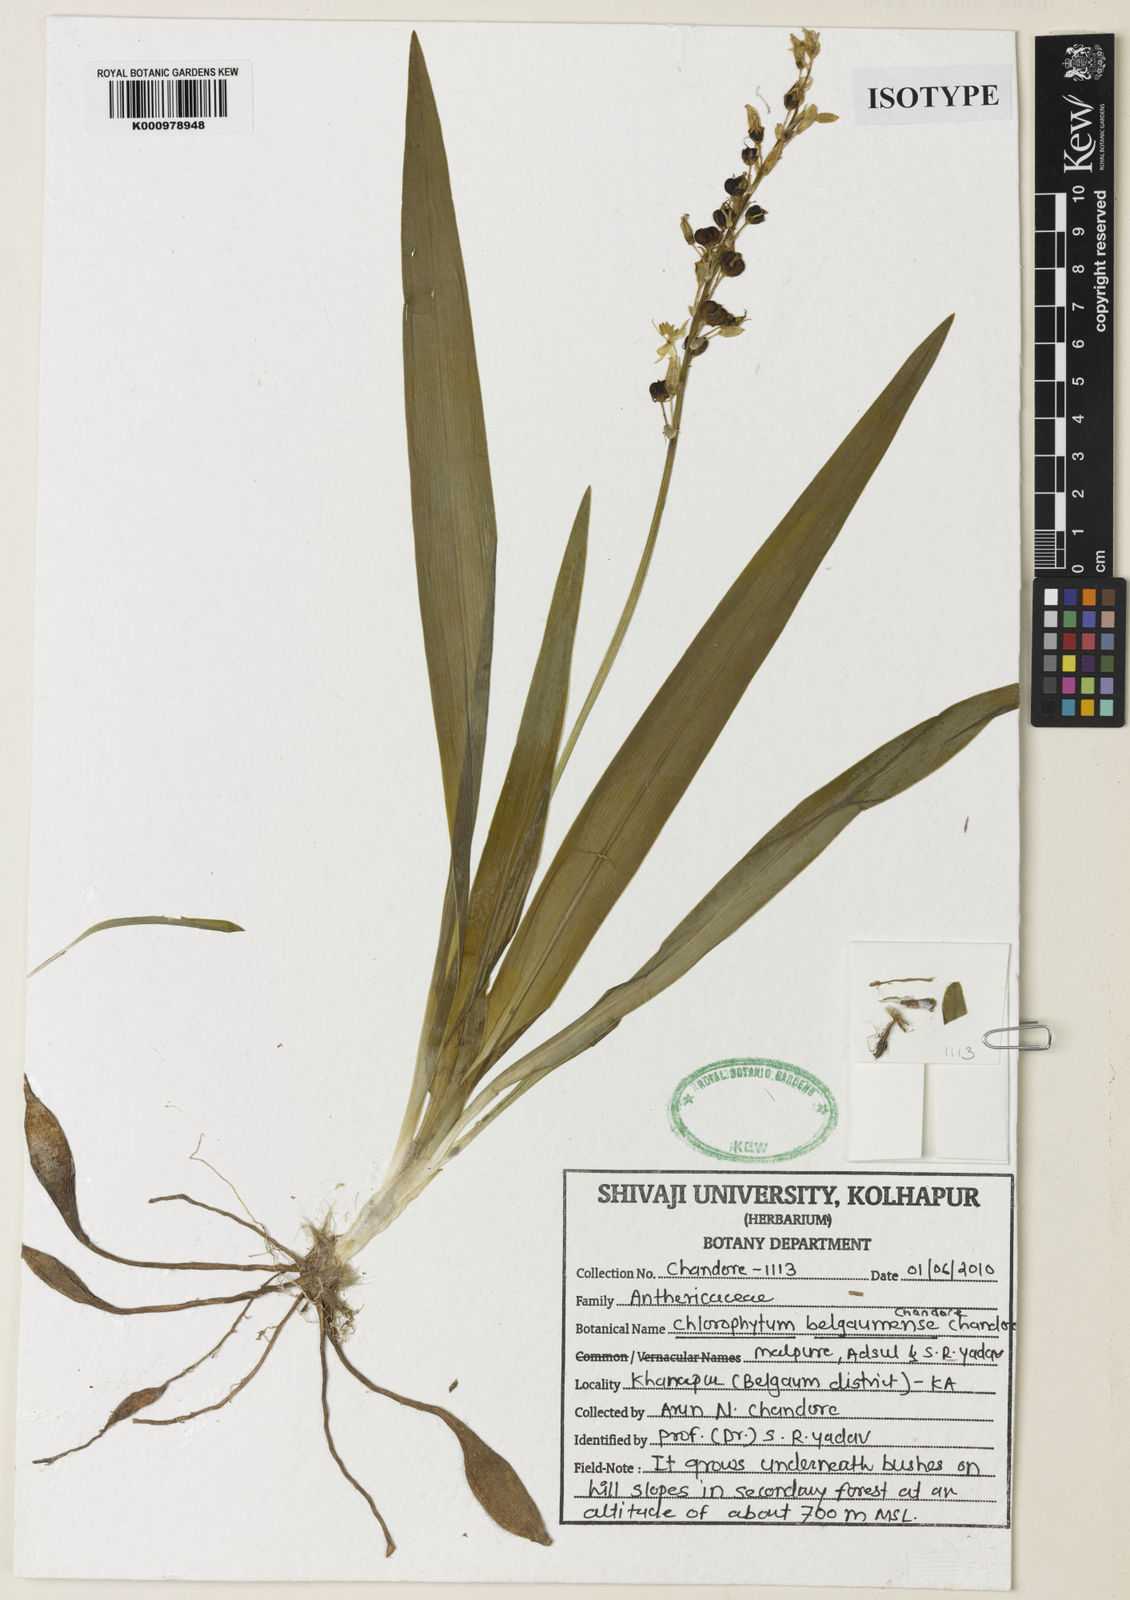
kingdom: Plantae
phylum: Tracheophyta
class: Liliopsida
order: Asparagales
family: Asparagaceae
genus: Chlorophytum
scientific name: Chlorophytum belgaumense
